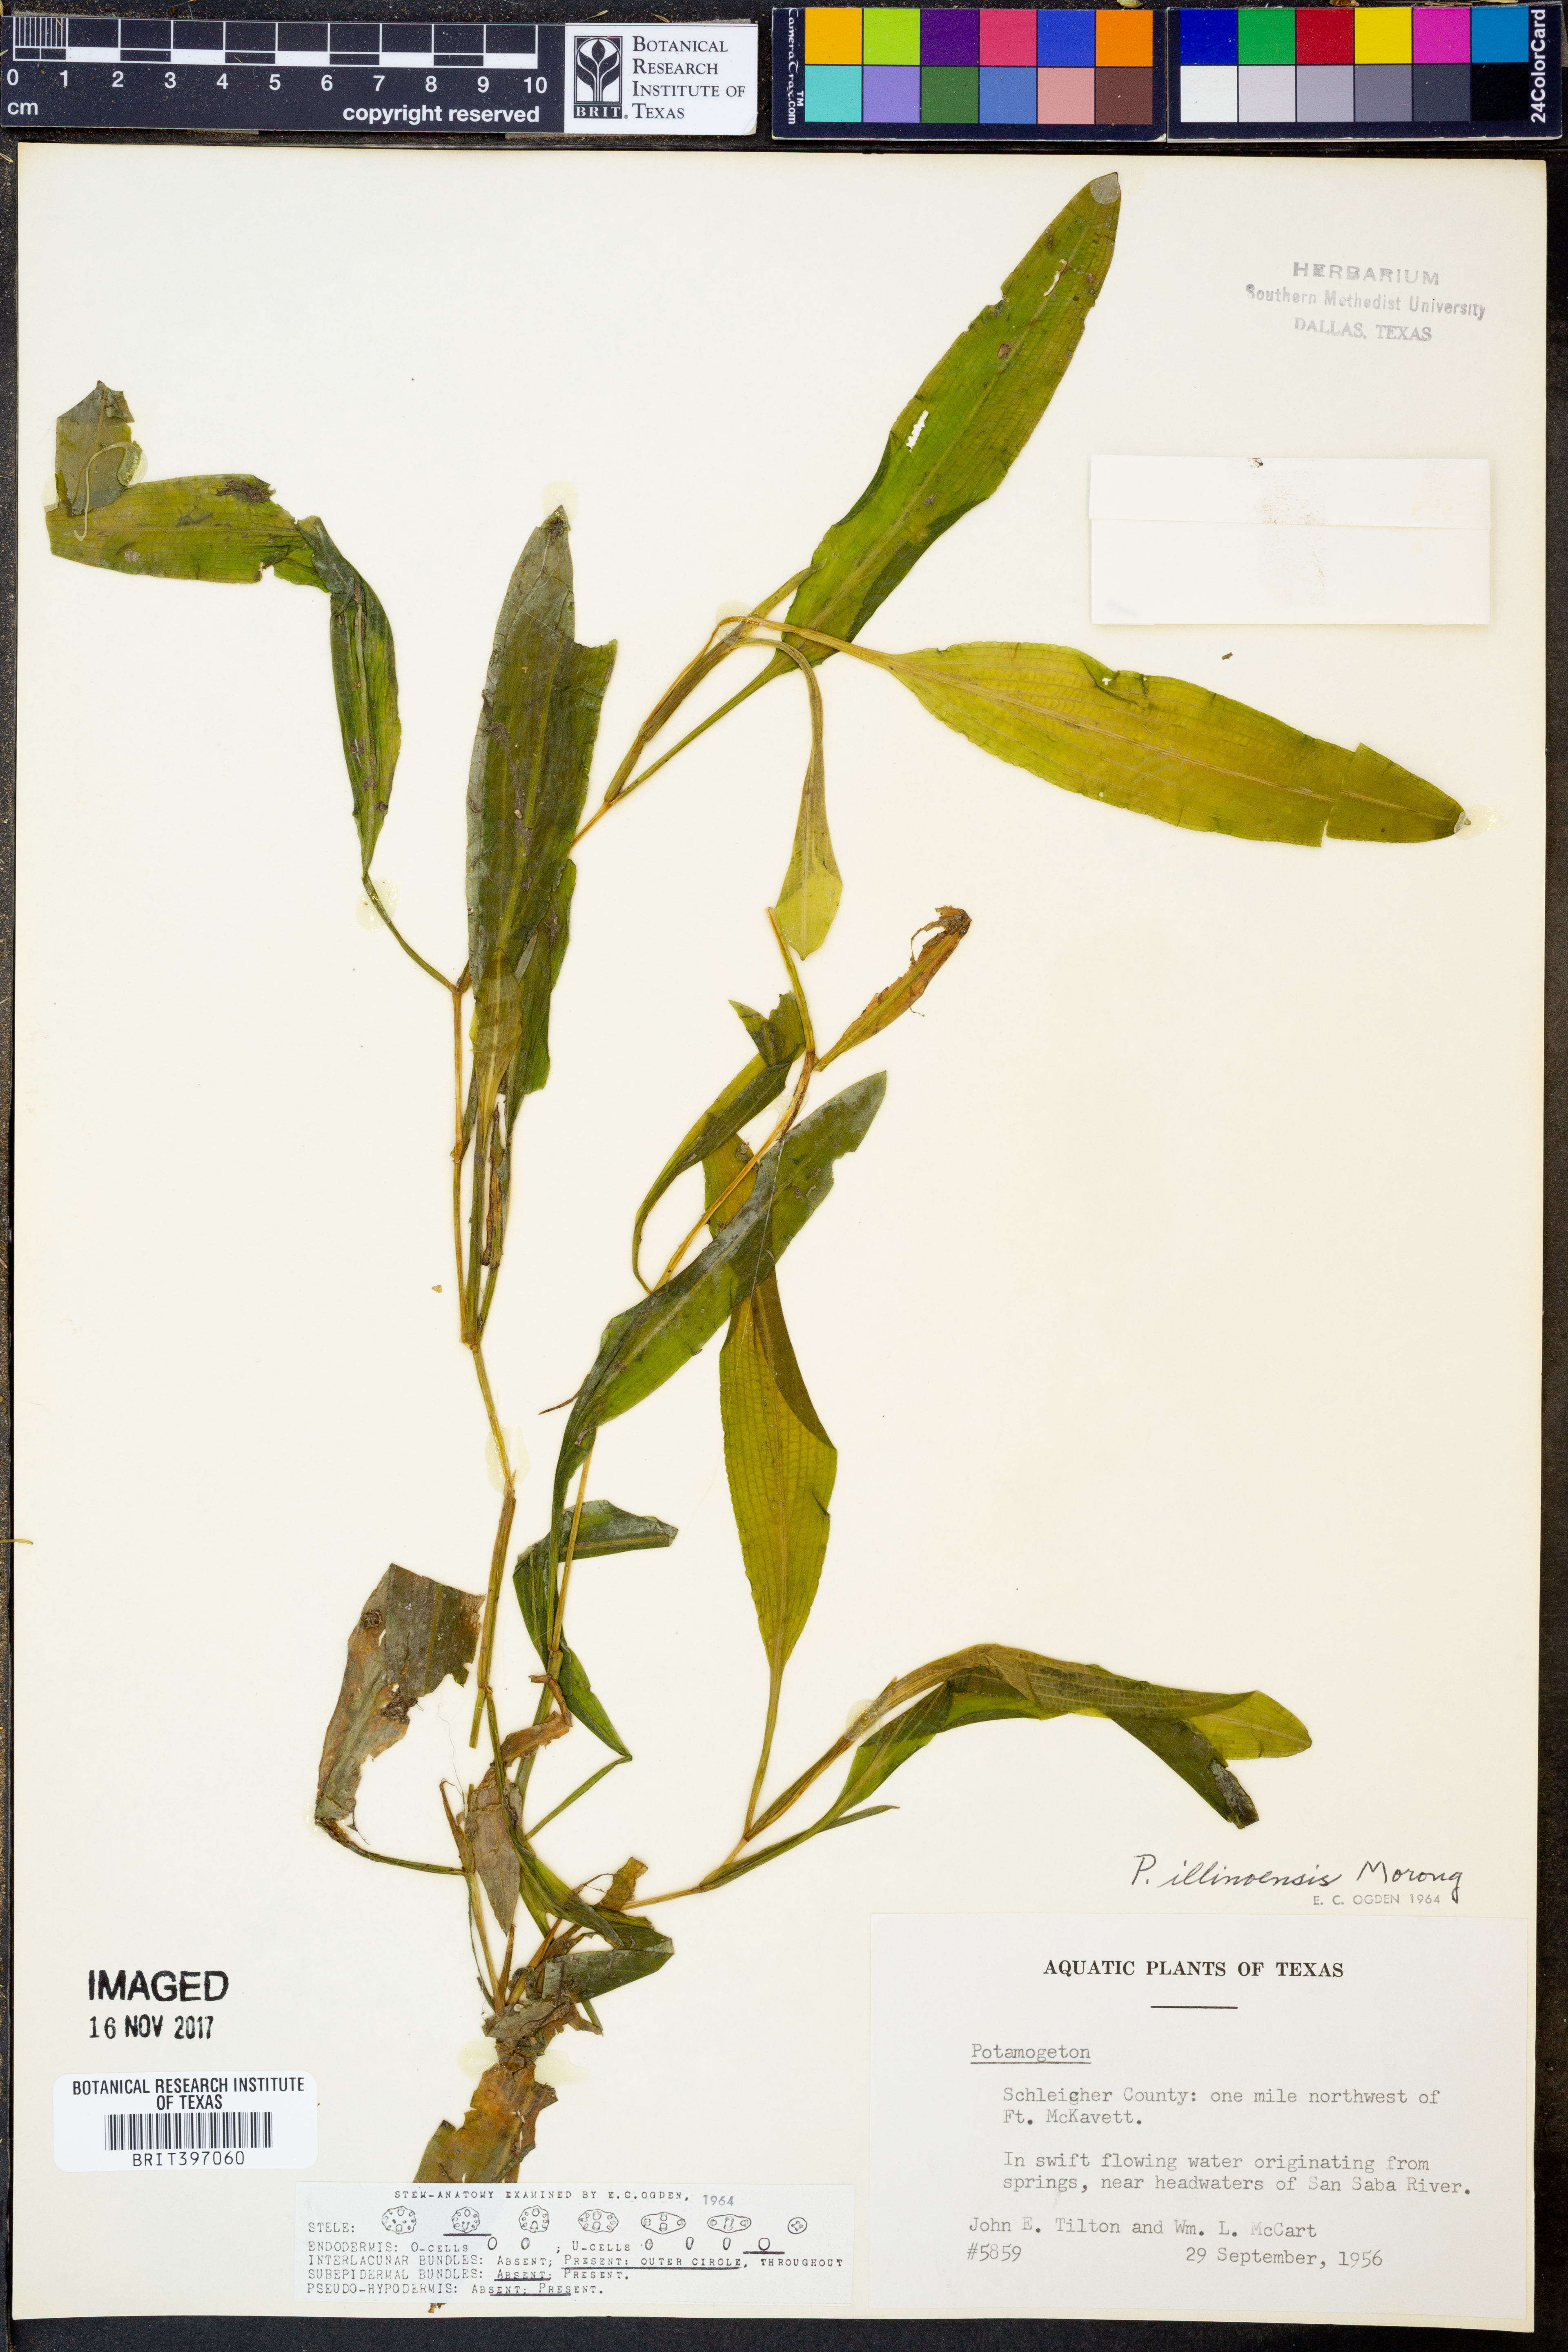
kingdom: Plantae
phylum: Tracheophyta
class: Liliopsida
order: Alismatales
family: Potamogetonaceae
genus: Potamogeton
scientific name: Potamogeton
